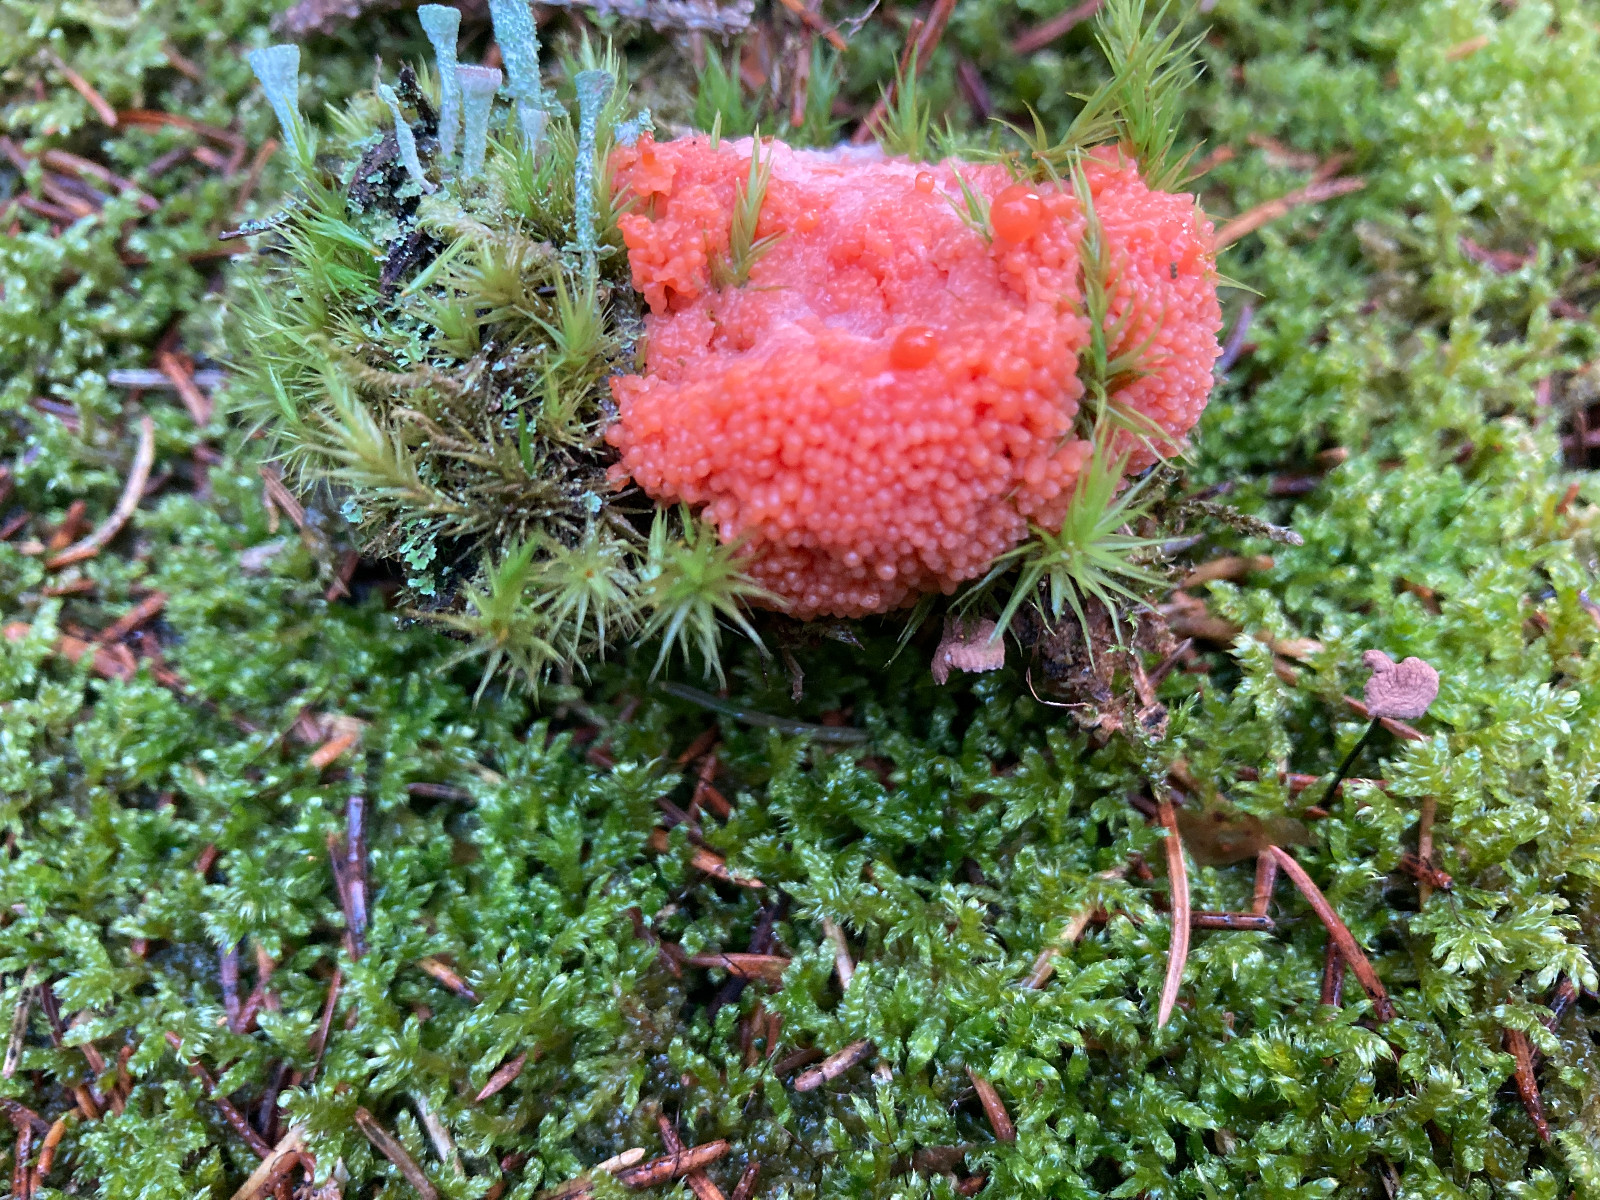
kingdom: Protozoa
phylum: Mycetozoa
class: Myxomycetes
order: Cribrariales
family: Tubiferaceae
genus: Tubifera
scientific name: Tubifera ferruginosa
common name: kanel-støvrør
